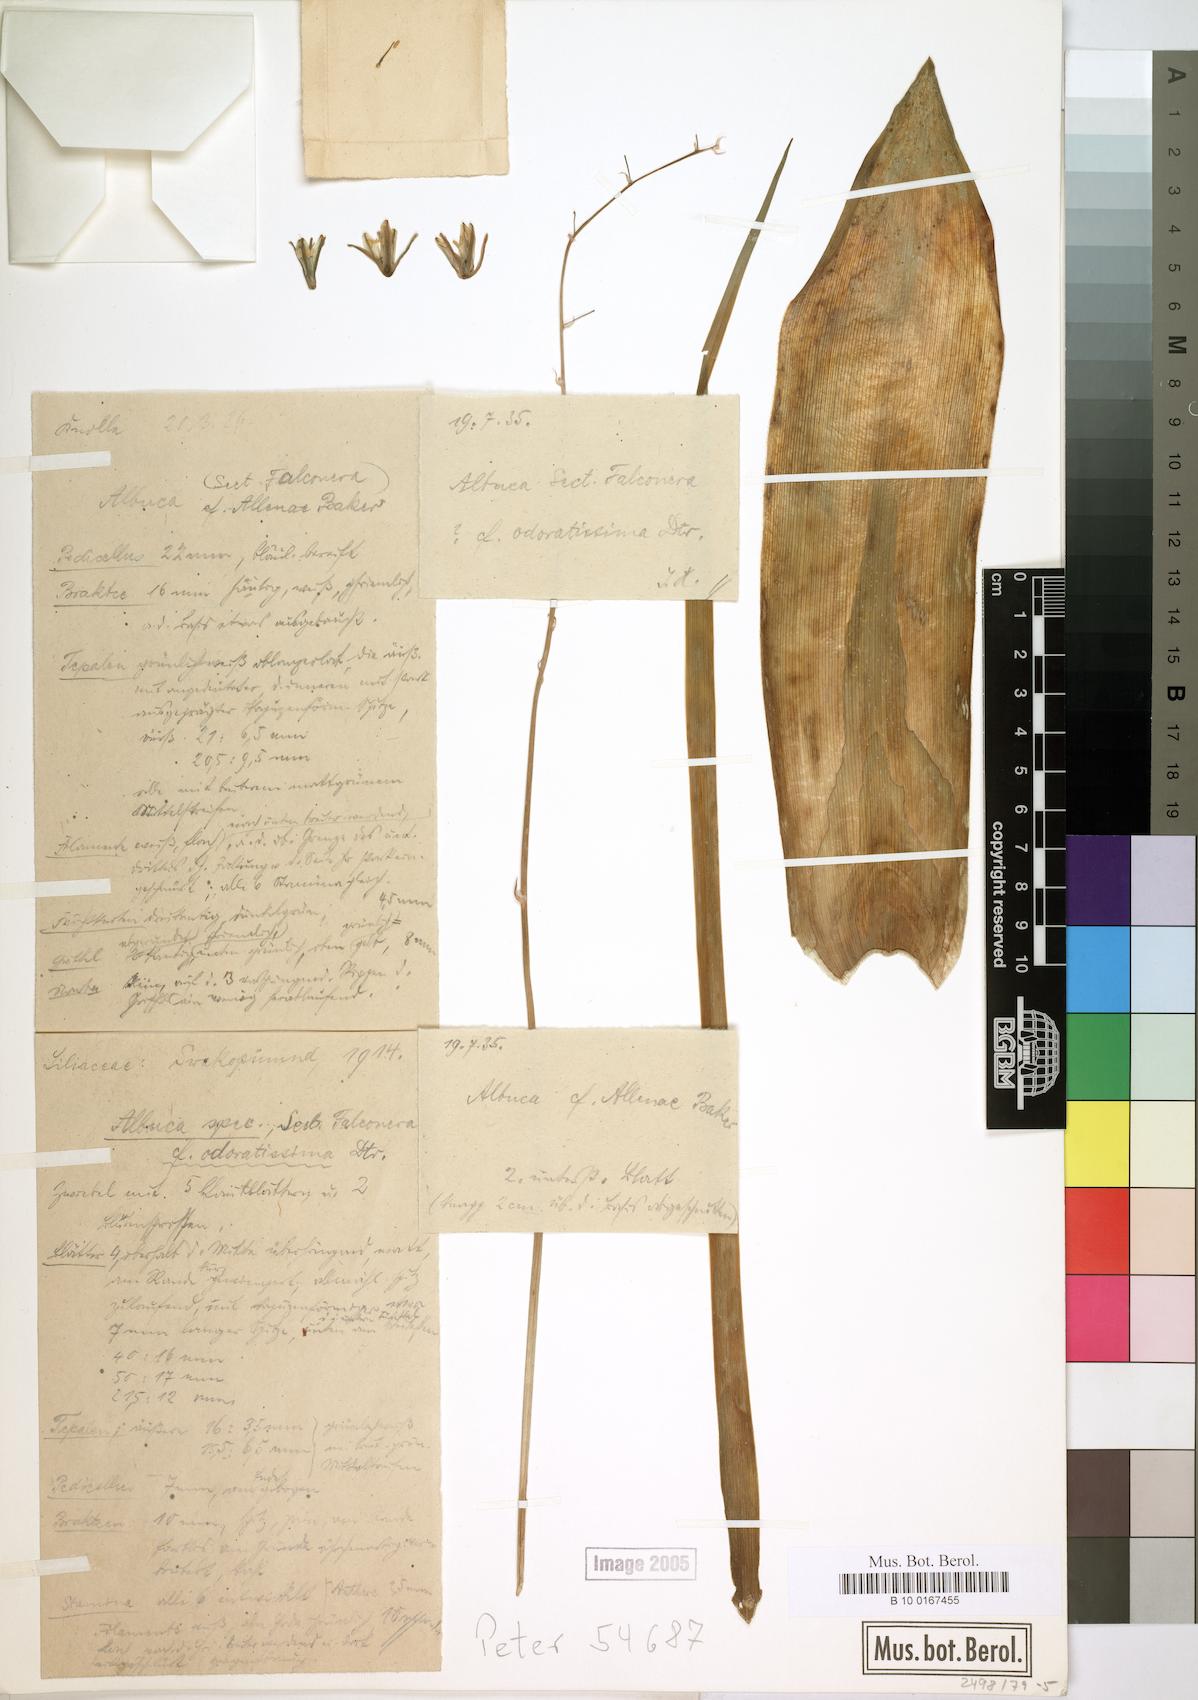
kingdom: Plantae
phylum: Tracheophyta
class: Liliopsida
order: Asparagales
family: Asparagaceae
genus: Albuca
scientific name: Albuca abyssinica
